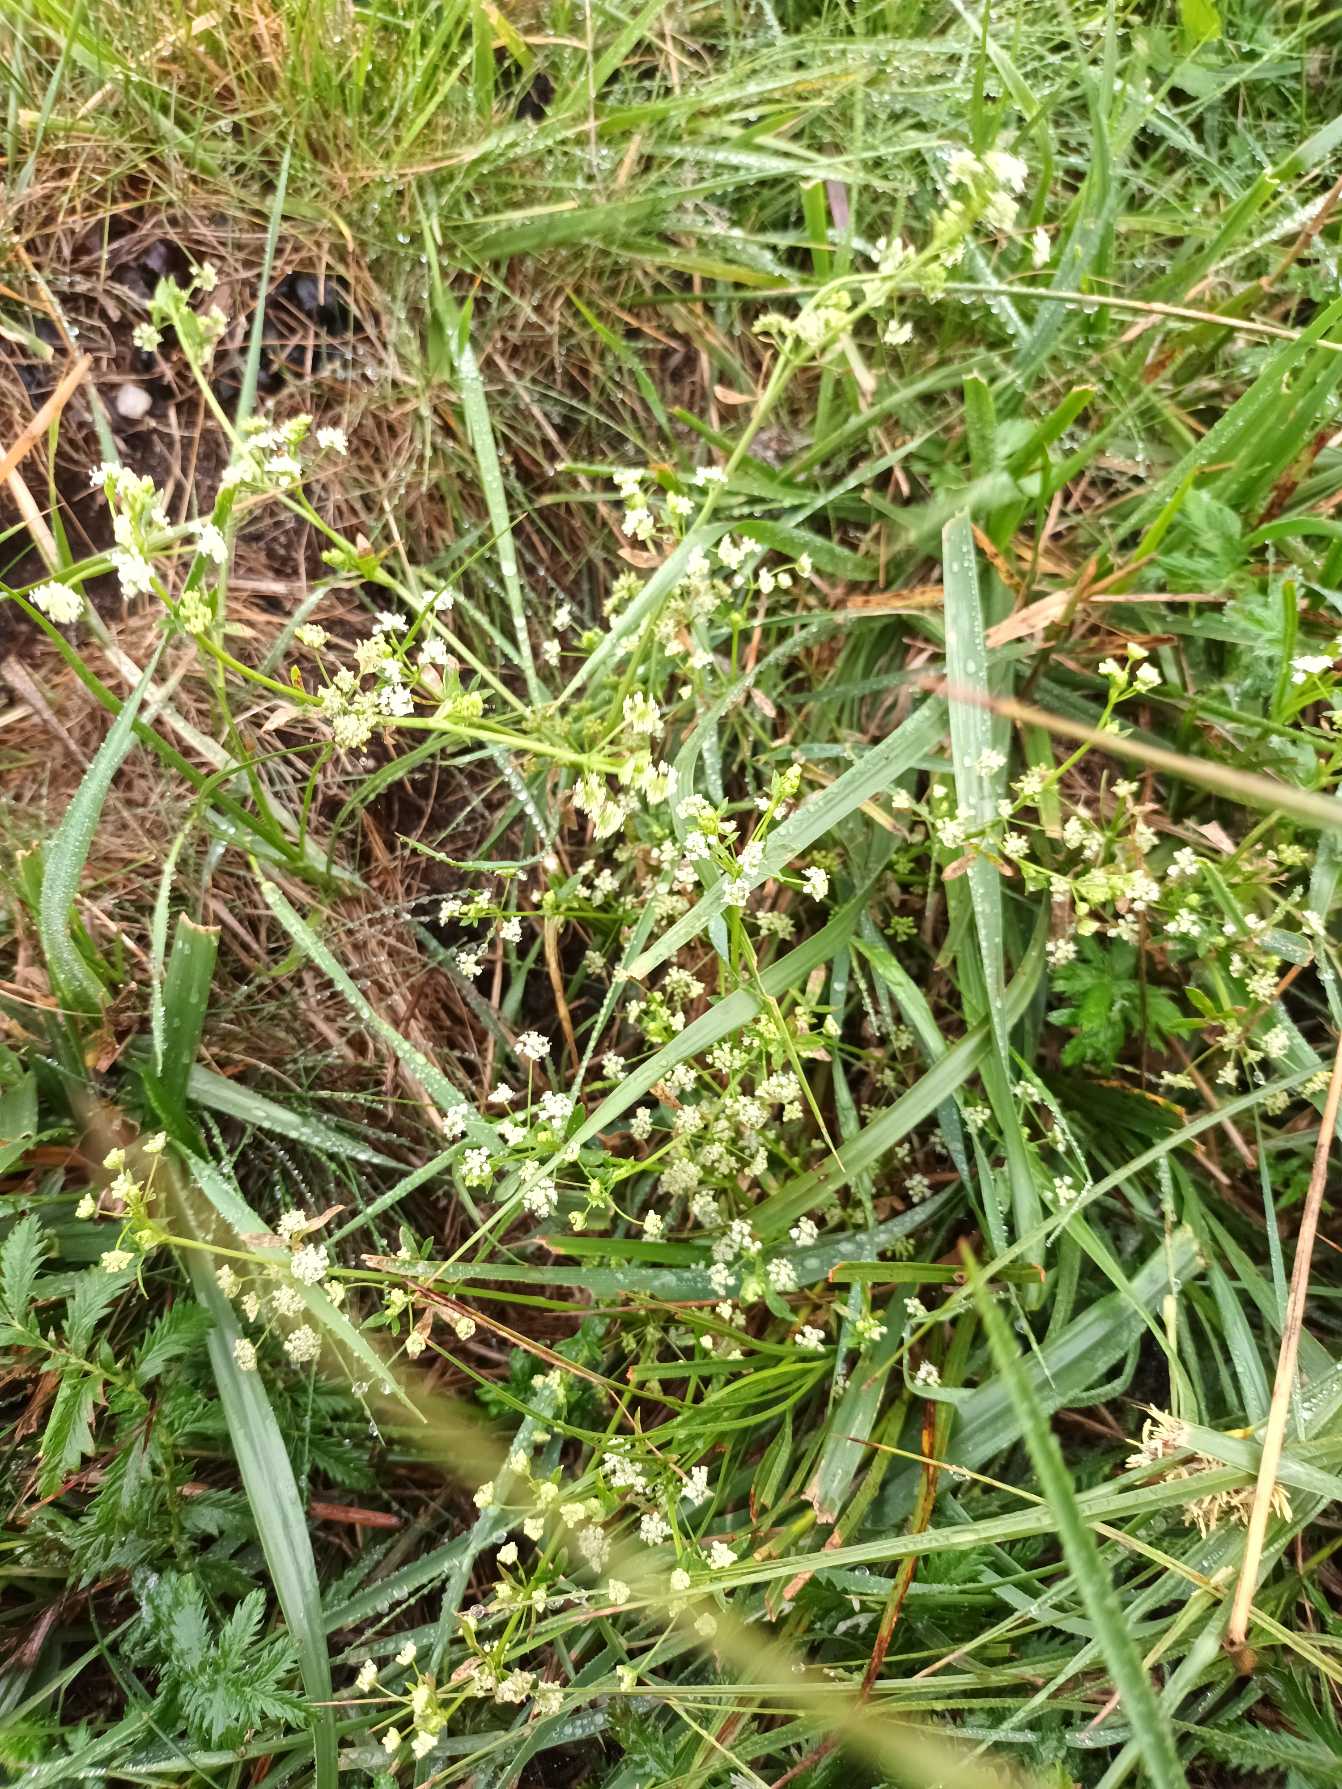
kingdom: Plantae
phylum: Tracheophyta
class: Magnoliopsida
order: Apiales
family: Apiaceae
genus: Apium
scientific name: Apium graveolens
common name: Vild selleri
